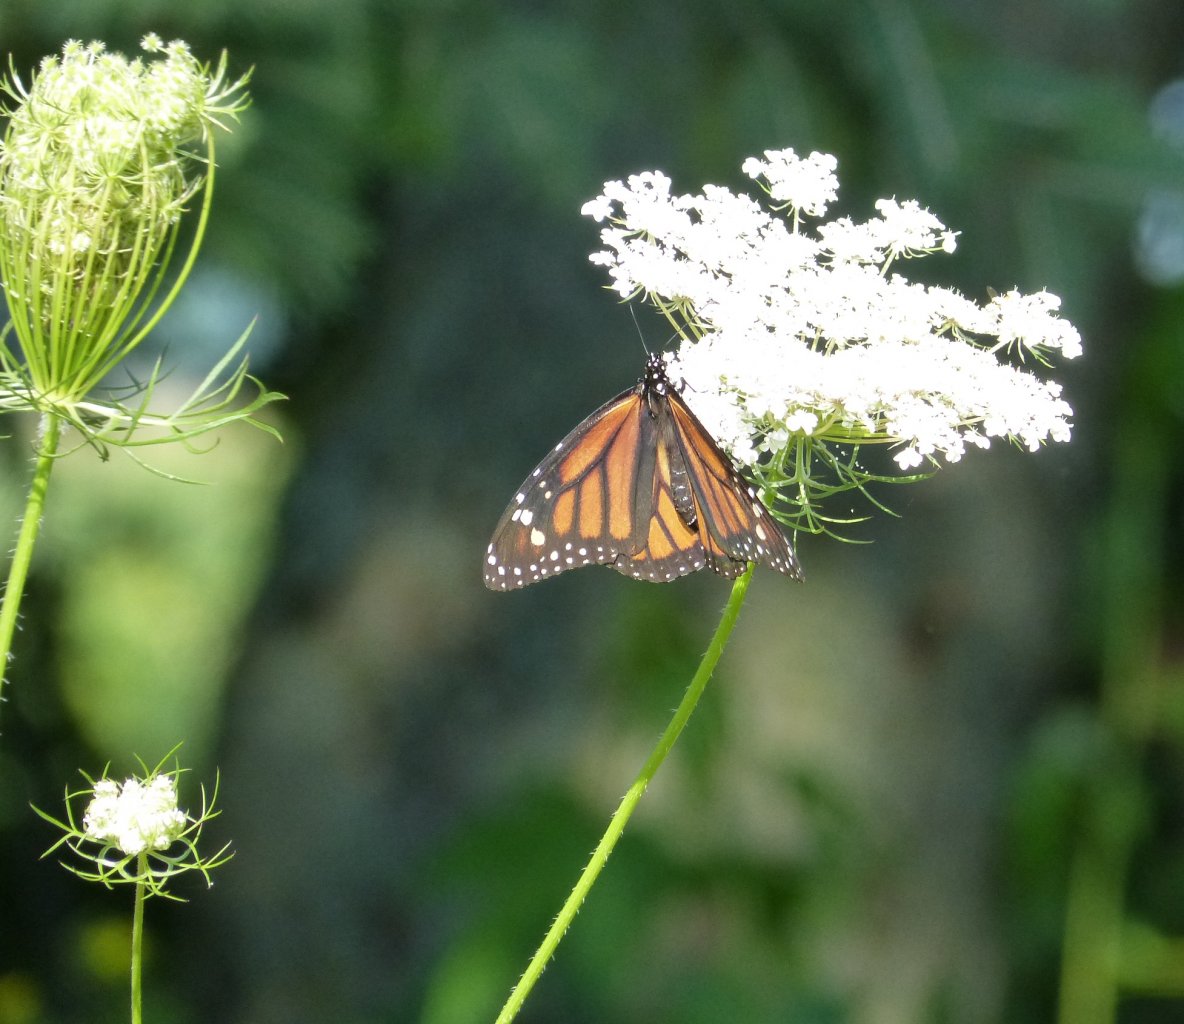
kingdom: Animalia
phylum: Arthropoda
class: Insecta
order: Lepidoptera
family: Nymphalidae
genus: Danaus
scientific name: Danaus plexippus
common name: Monarch
